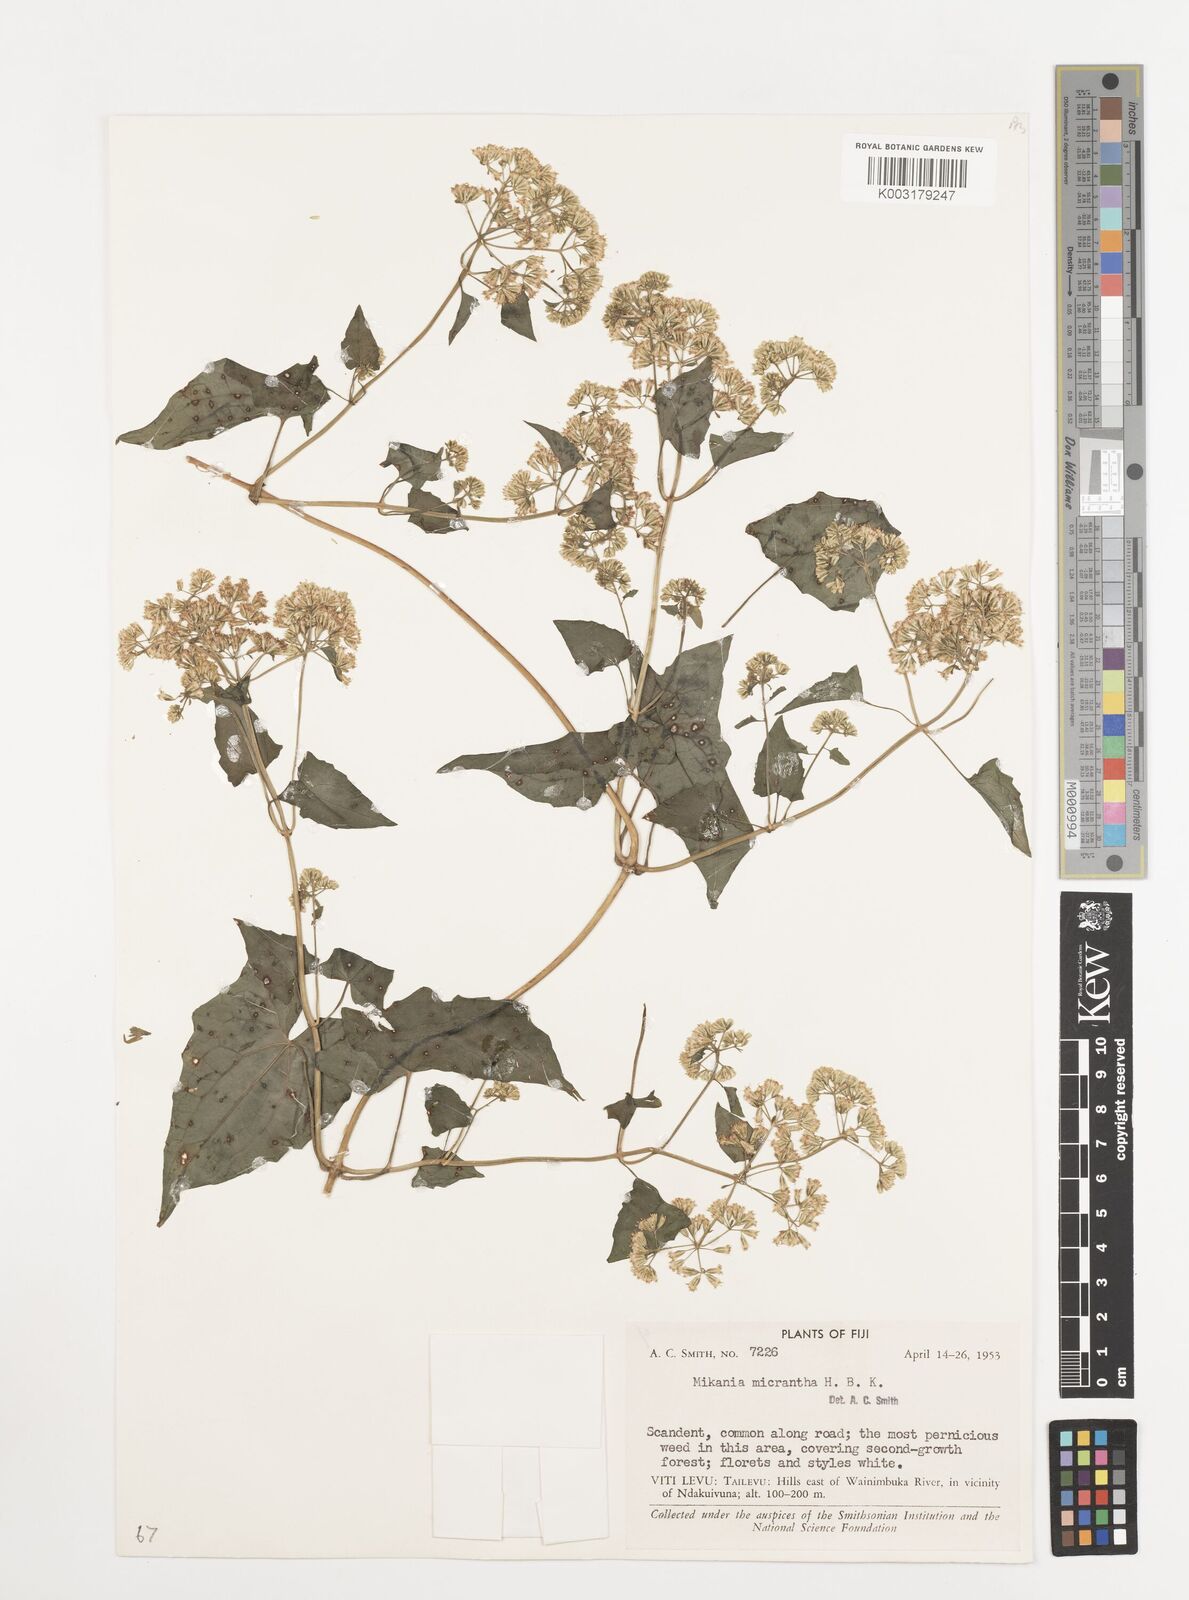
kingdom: Plantae
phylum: Tracheophyta
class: Magnoliopsida
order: Asterales
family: Asteraceae
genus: Mikania
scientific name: Mikania micrantha
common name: Mile-a-minute
